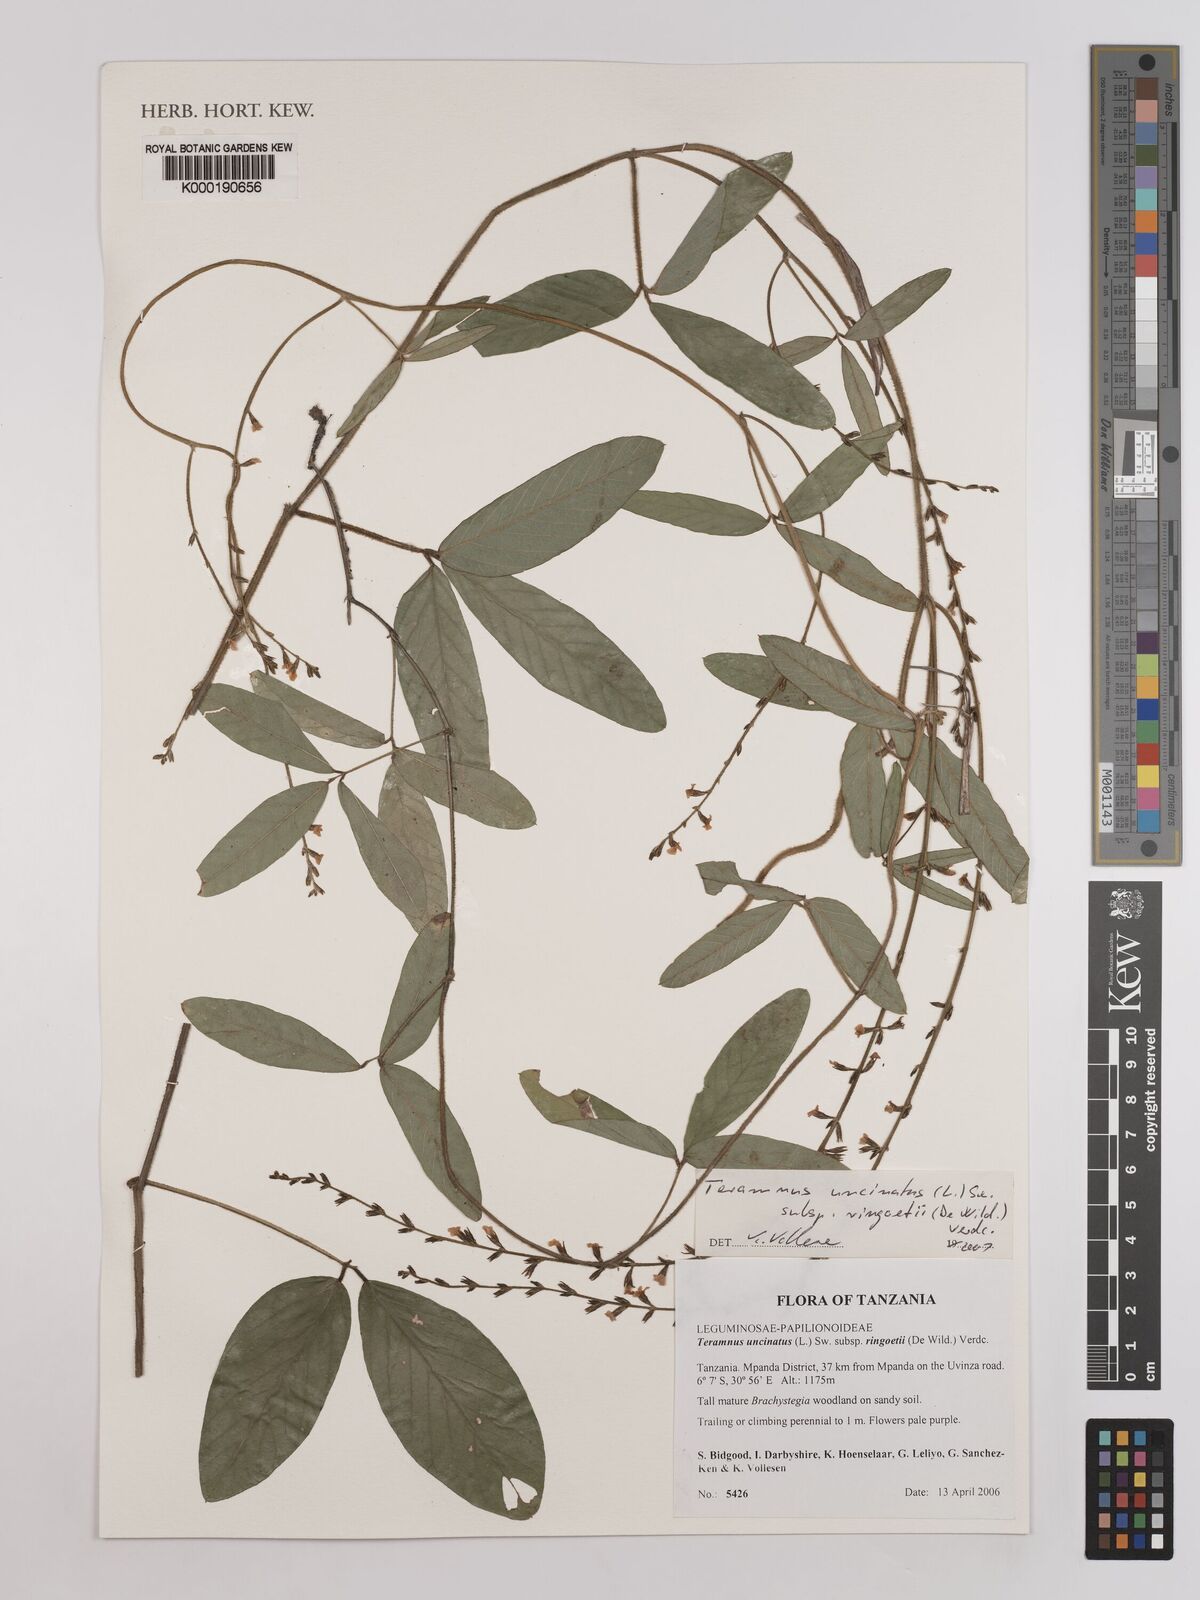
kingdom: Plantae
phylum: Tracheophyta
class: Magnoliopsida
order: Fabales
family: Fabaceae
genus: Teramnus
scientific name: Teramnus uncinatus
